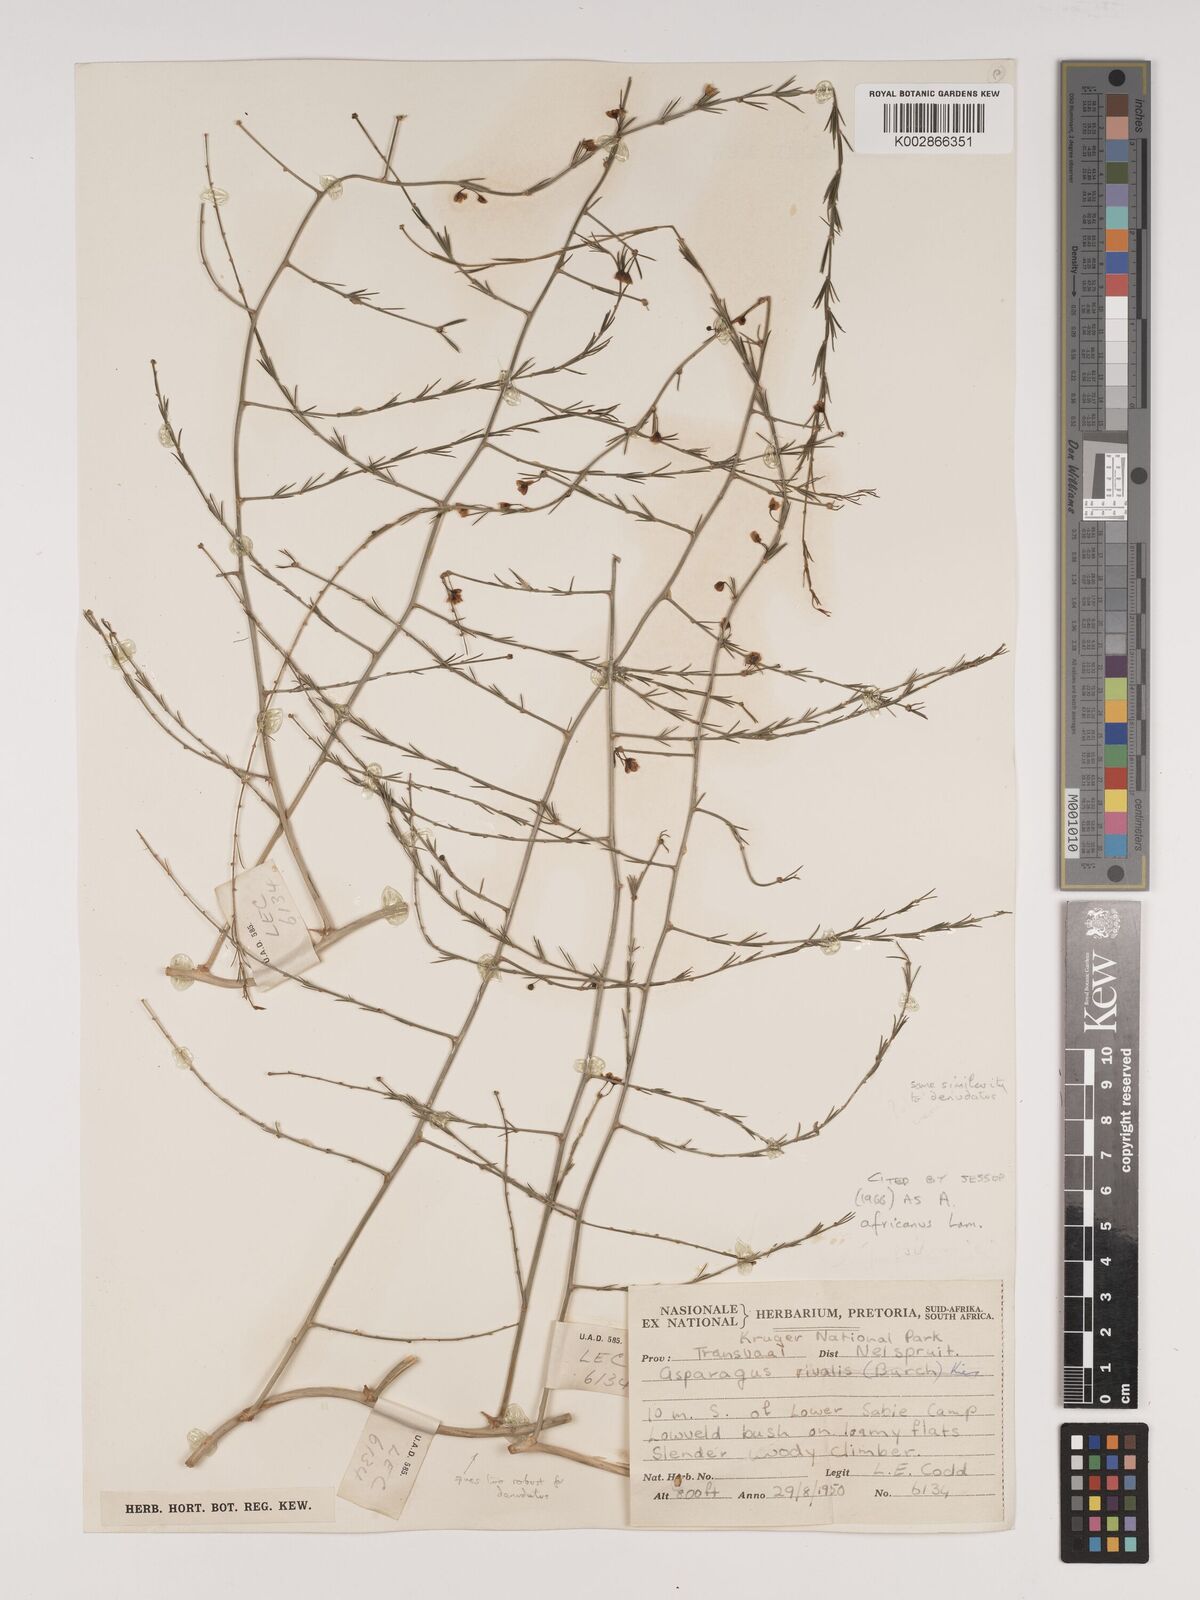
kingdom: Plantae
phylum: Tracheophyta
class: Liliopsida
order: Asparagales
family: Asparagaceae
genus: Asparagus
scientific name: Asparagus africanus
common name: Asparagus-fern
